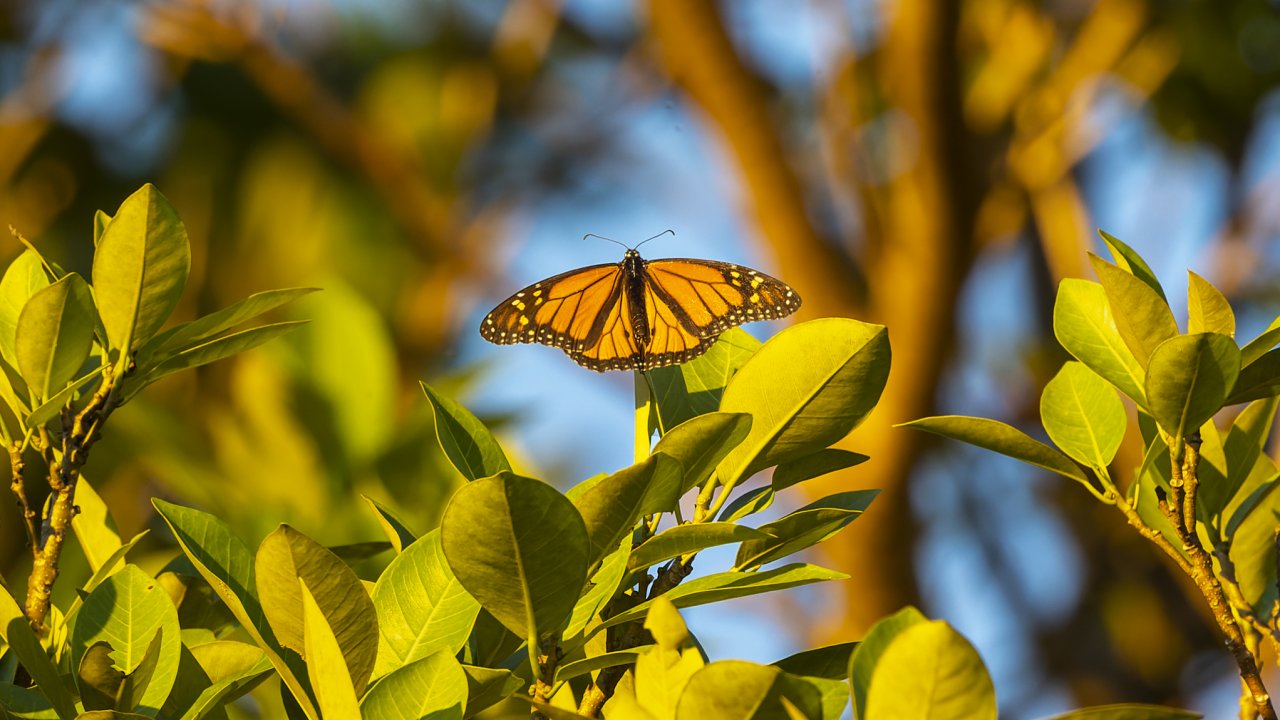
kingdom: Animalia
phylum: Arthropoda
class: Insecta
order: Lepidoptera
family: Nymphalidae
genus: Danaus
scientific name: Danaus plexippus
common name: Monarch
